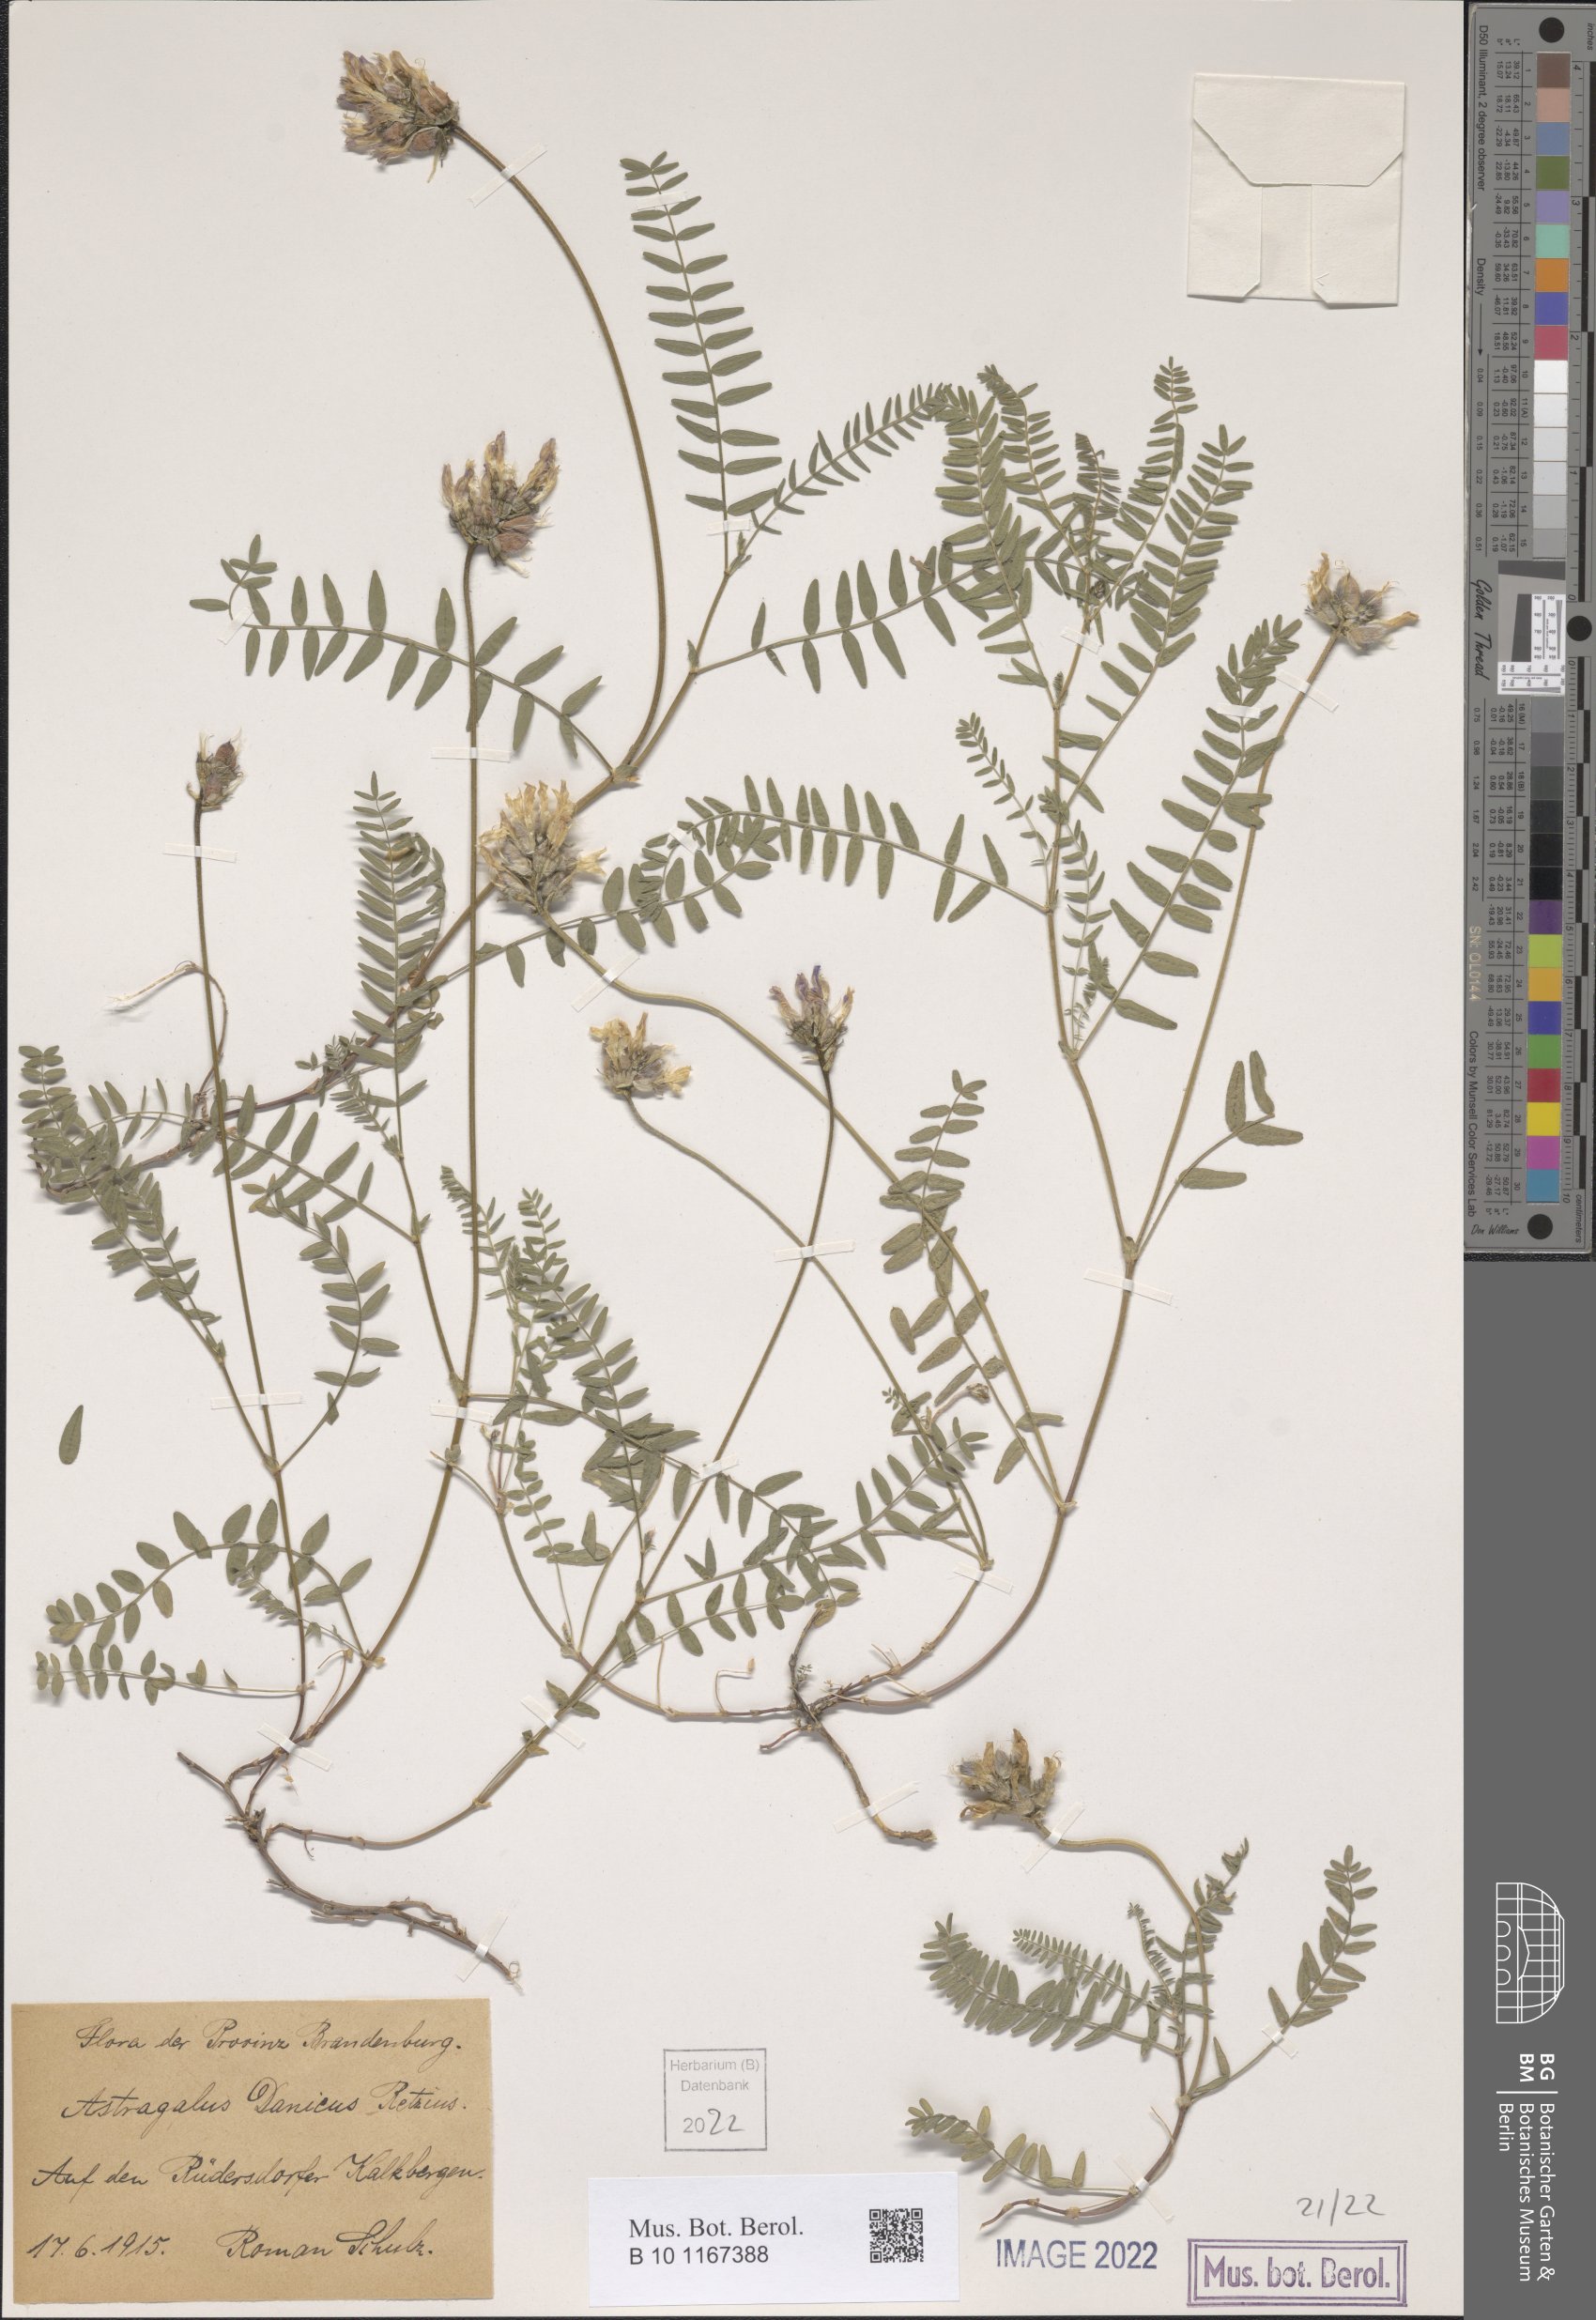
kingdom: Plantae
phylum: Tracheophyta
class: Magnoliopsida
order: Fabales
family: Fabaceae
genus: Astragalus
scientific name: Astragalus danicus
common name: Purple milk-vetch
